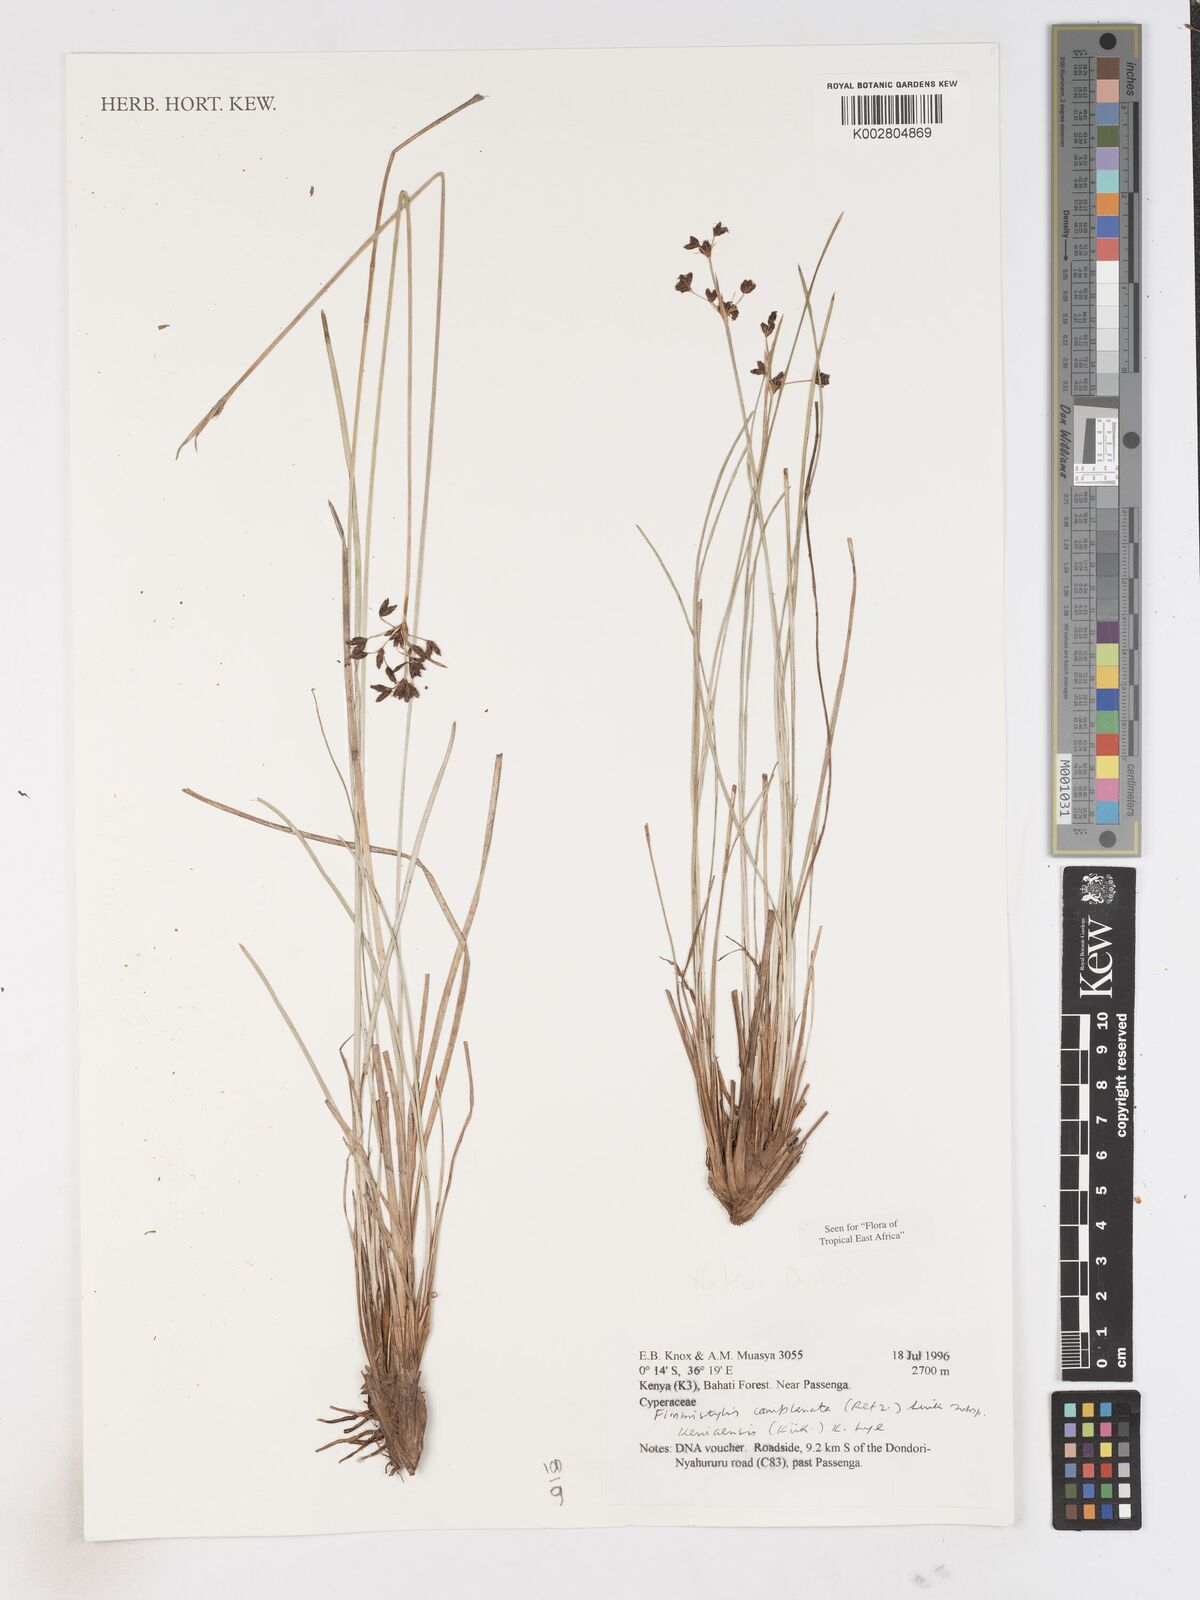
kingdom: Plantae
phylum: Tracheophyta
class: Liliopsida
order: Poales
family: Cyperaceae
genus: Fimbristylis
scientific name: Fimbristylis complanata
